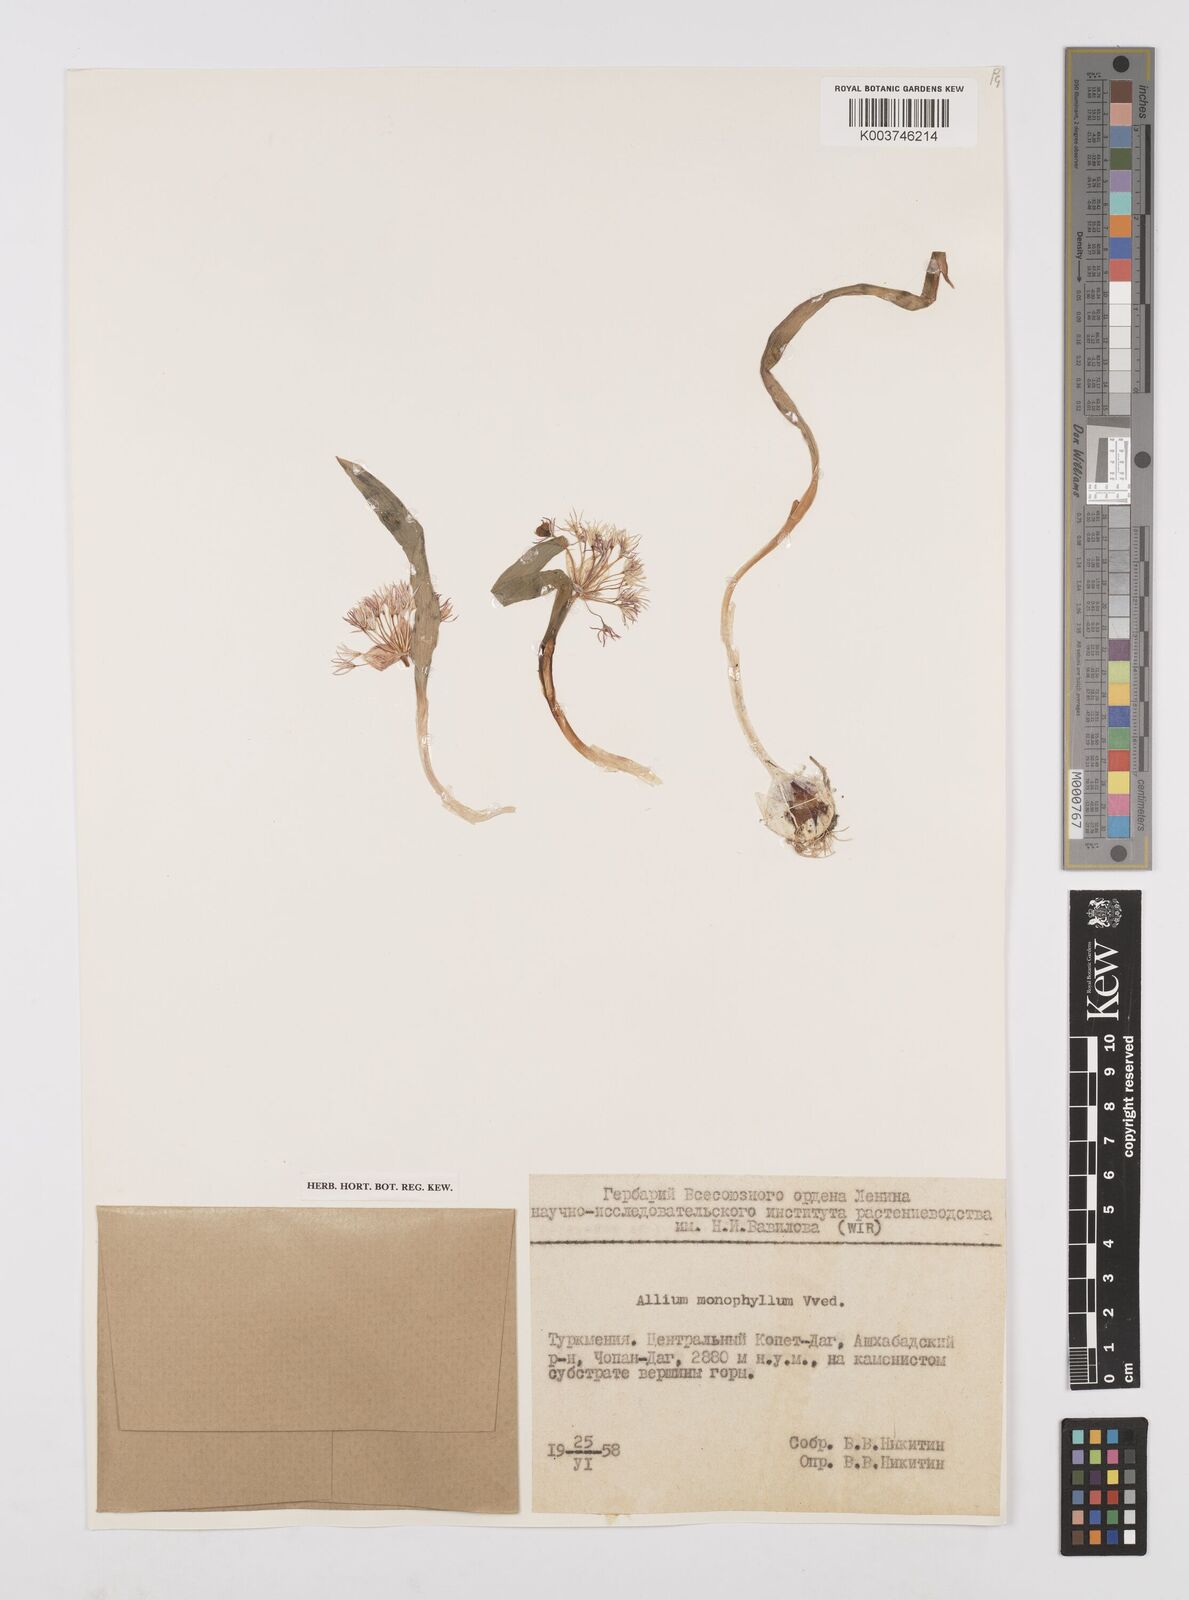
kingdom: Plantae
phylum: Tracheophyta
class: Liliopsida
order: Asparagales
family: Amaryllidaceae
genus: Allium
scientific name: Allium monophyllum
